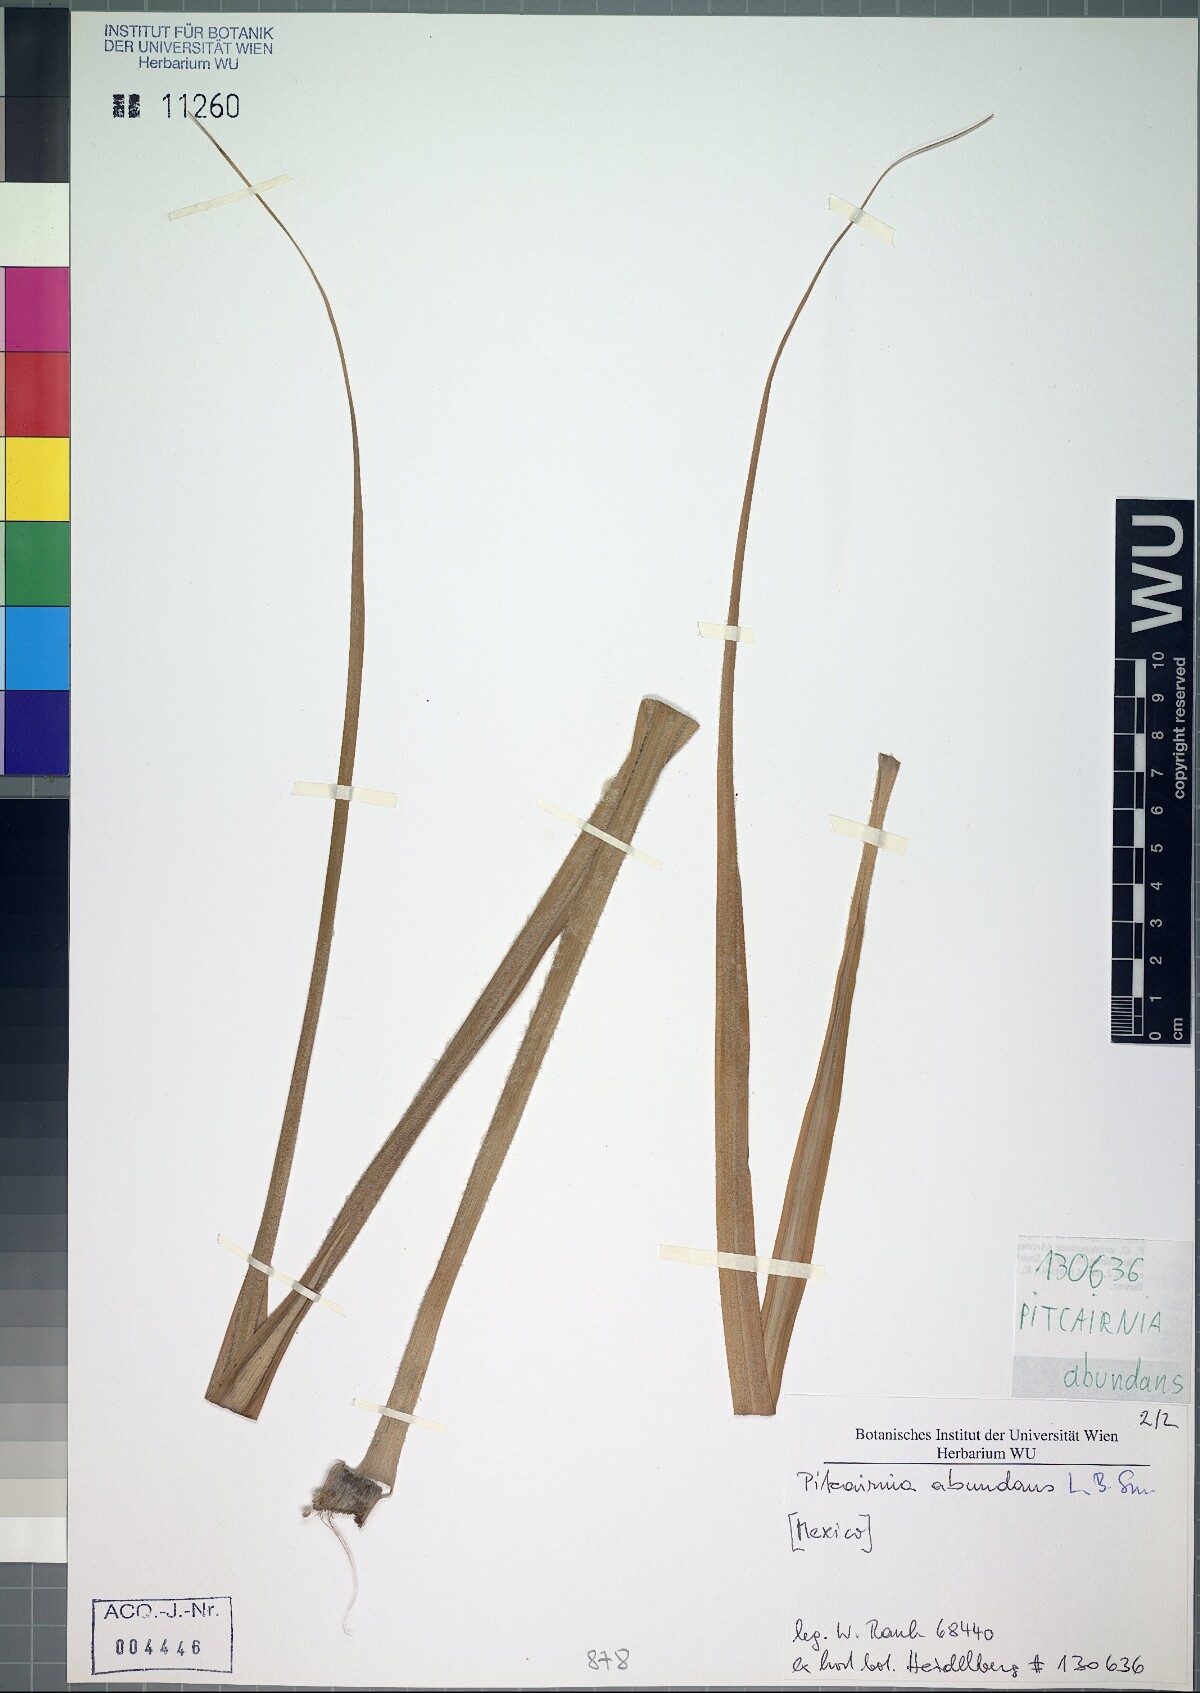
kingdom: Plantae
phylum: Tracheophyta
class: Liliopsida
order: Poales
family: Bromeliaceae
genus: Pitcairnia
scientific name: Pitcairnia abundans
